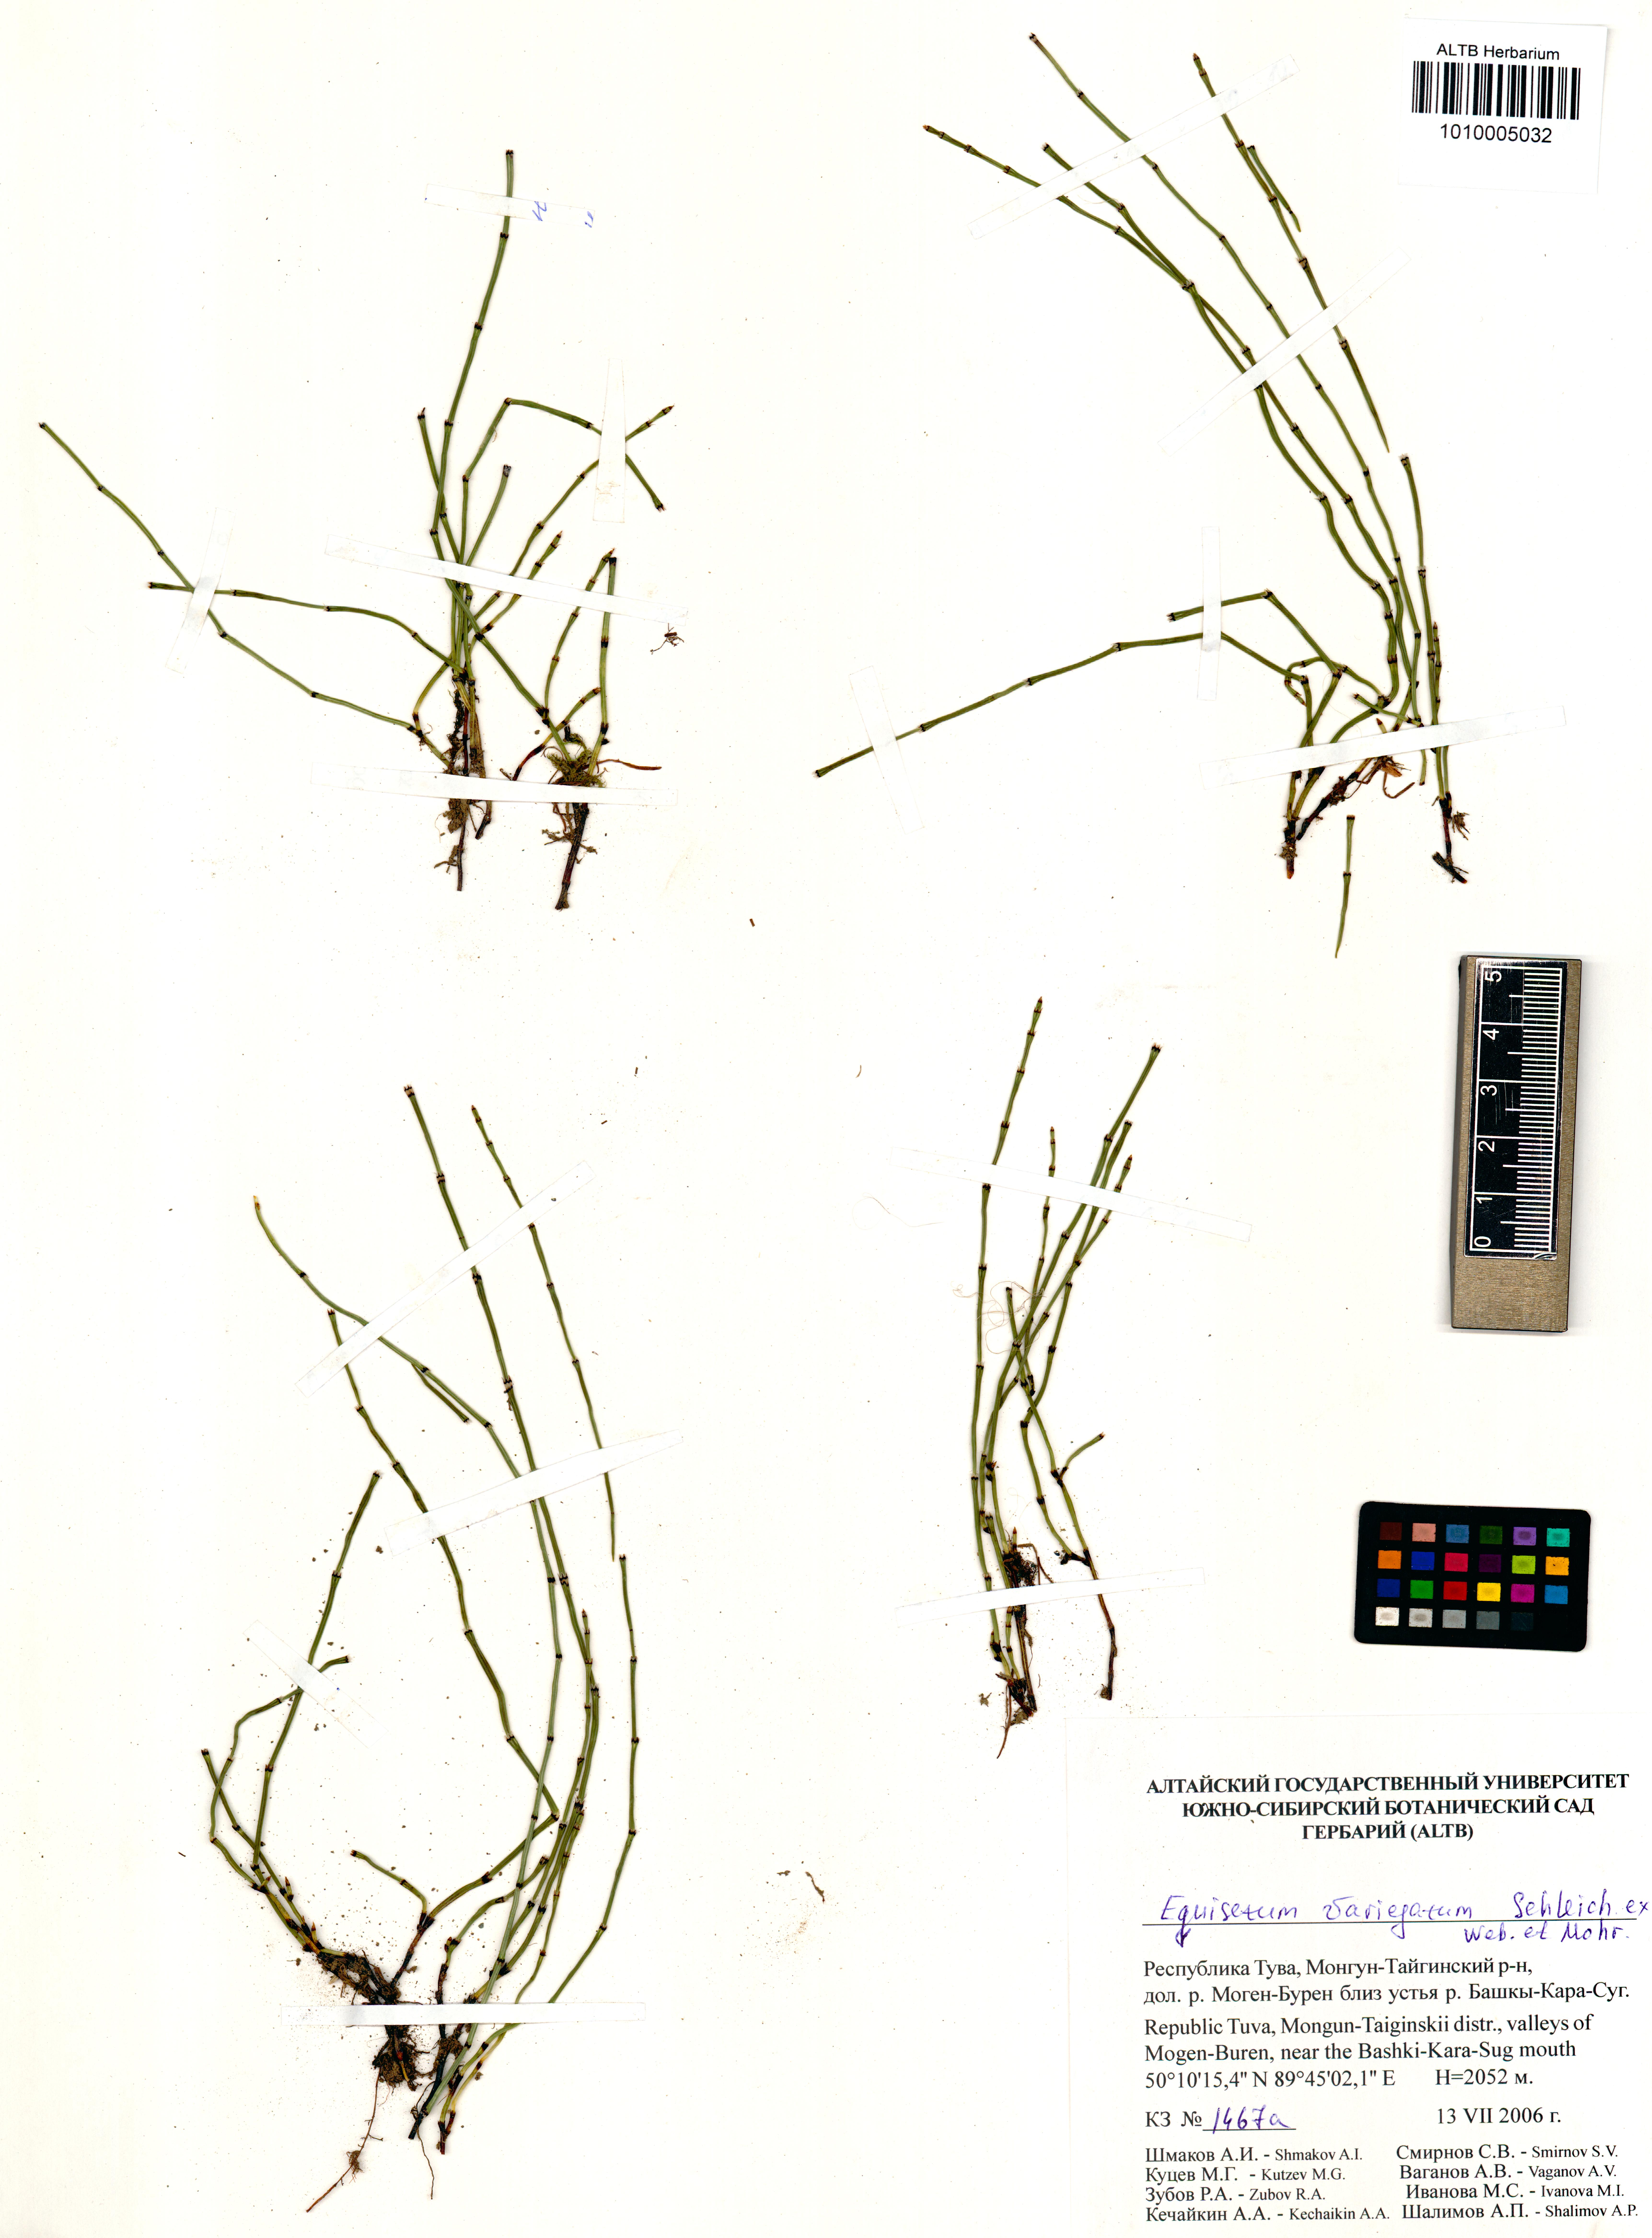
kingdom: Plantae
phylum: Tracheophyta
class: Polypodiopsida
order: Equisetales
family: Equisetaceae
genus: Equisetum
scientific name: Equisetum variegatum
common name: Variegated horsetail
